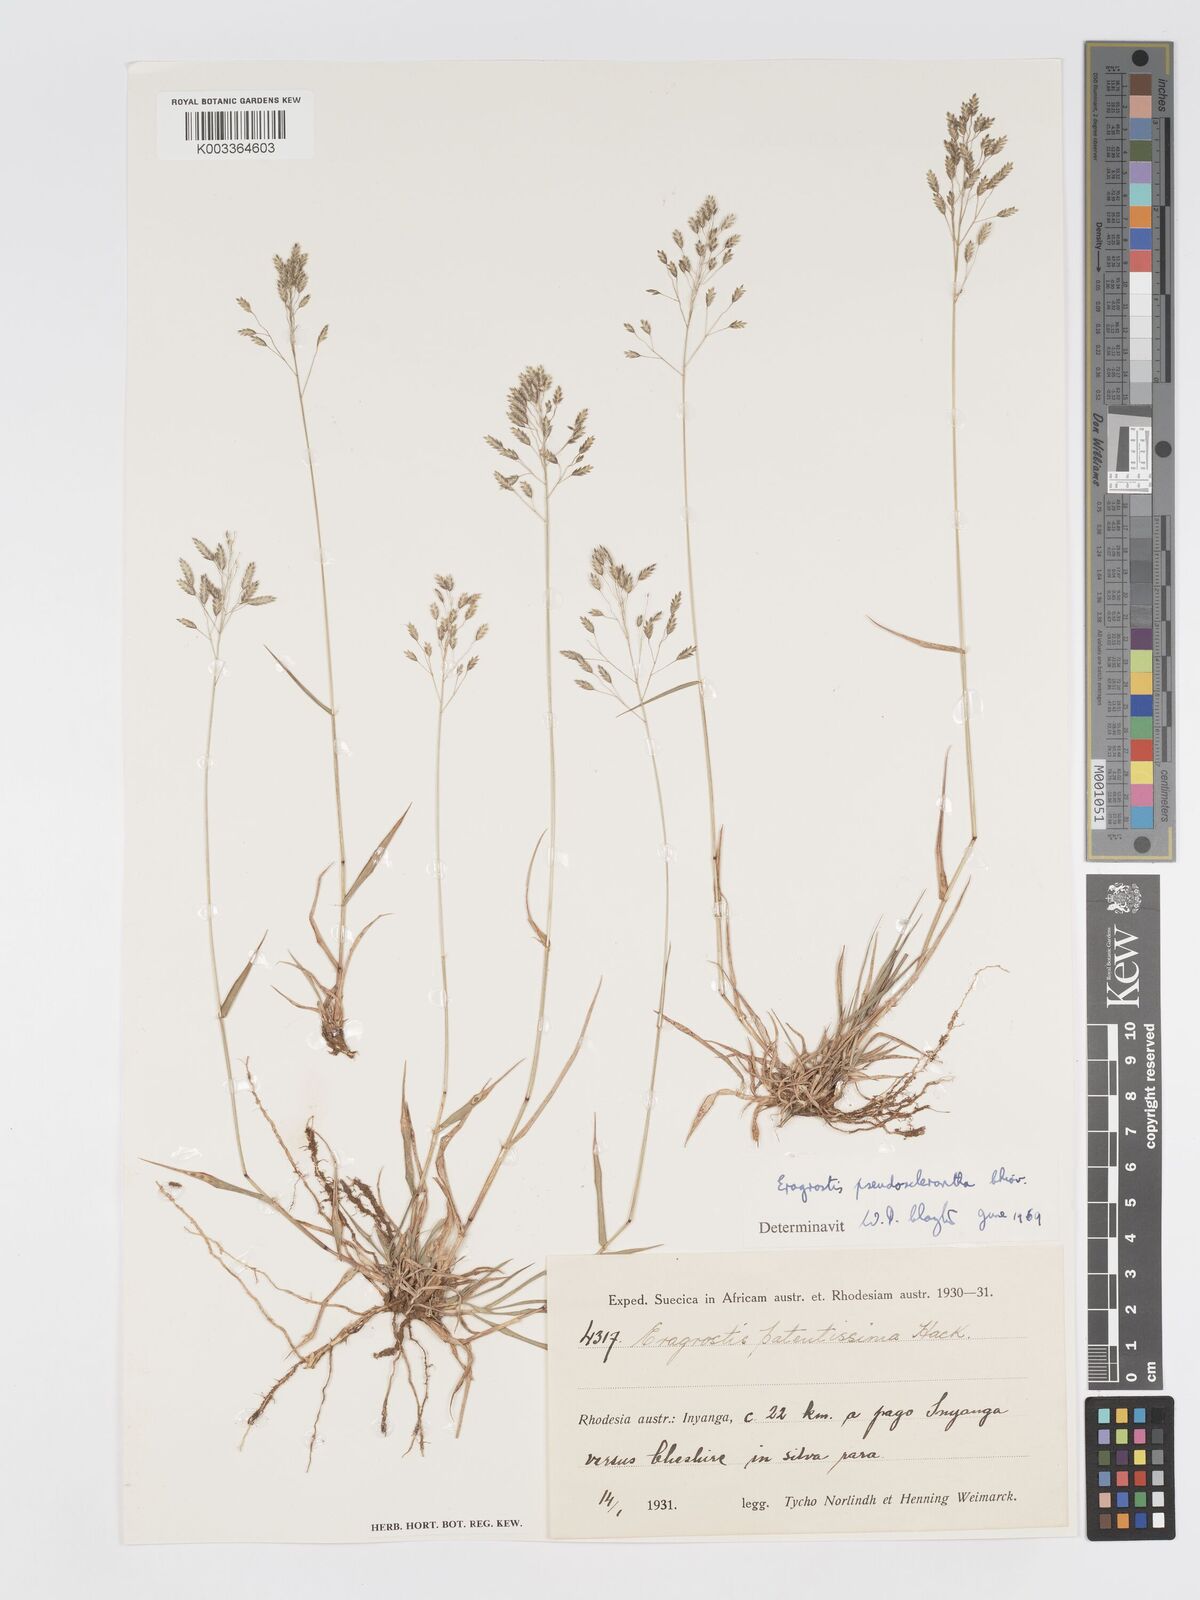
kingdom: Plantae
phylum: Tracheophyta
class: Liliopsida
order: Poales
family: Poaceae
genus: Eragrostis
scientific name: Eragrostis patentipilosa
